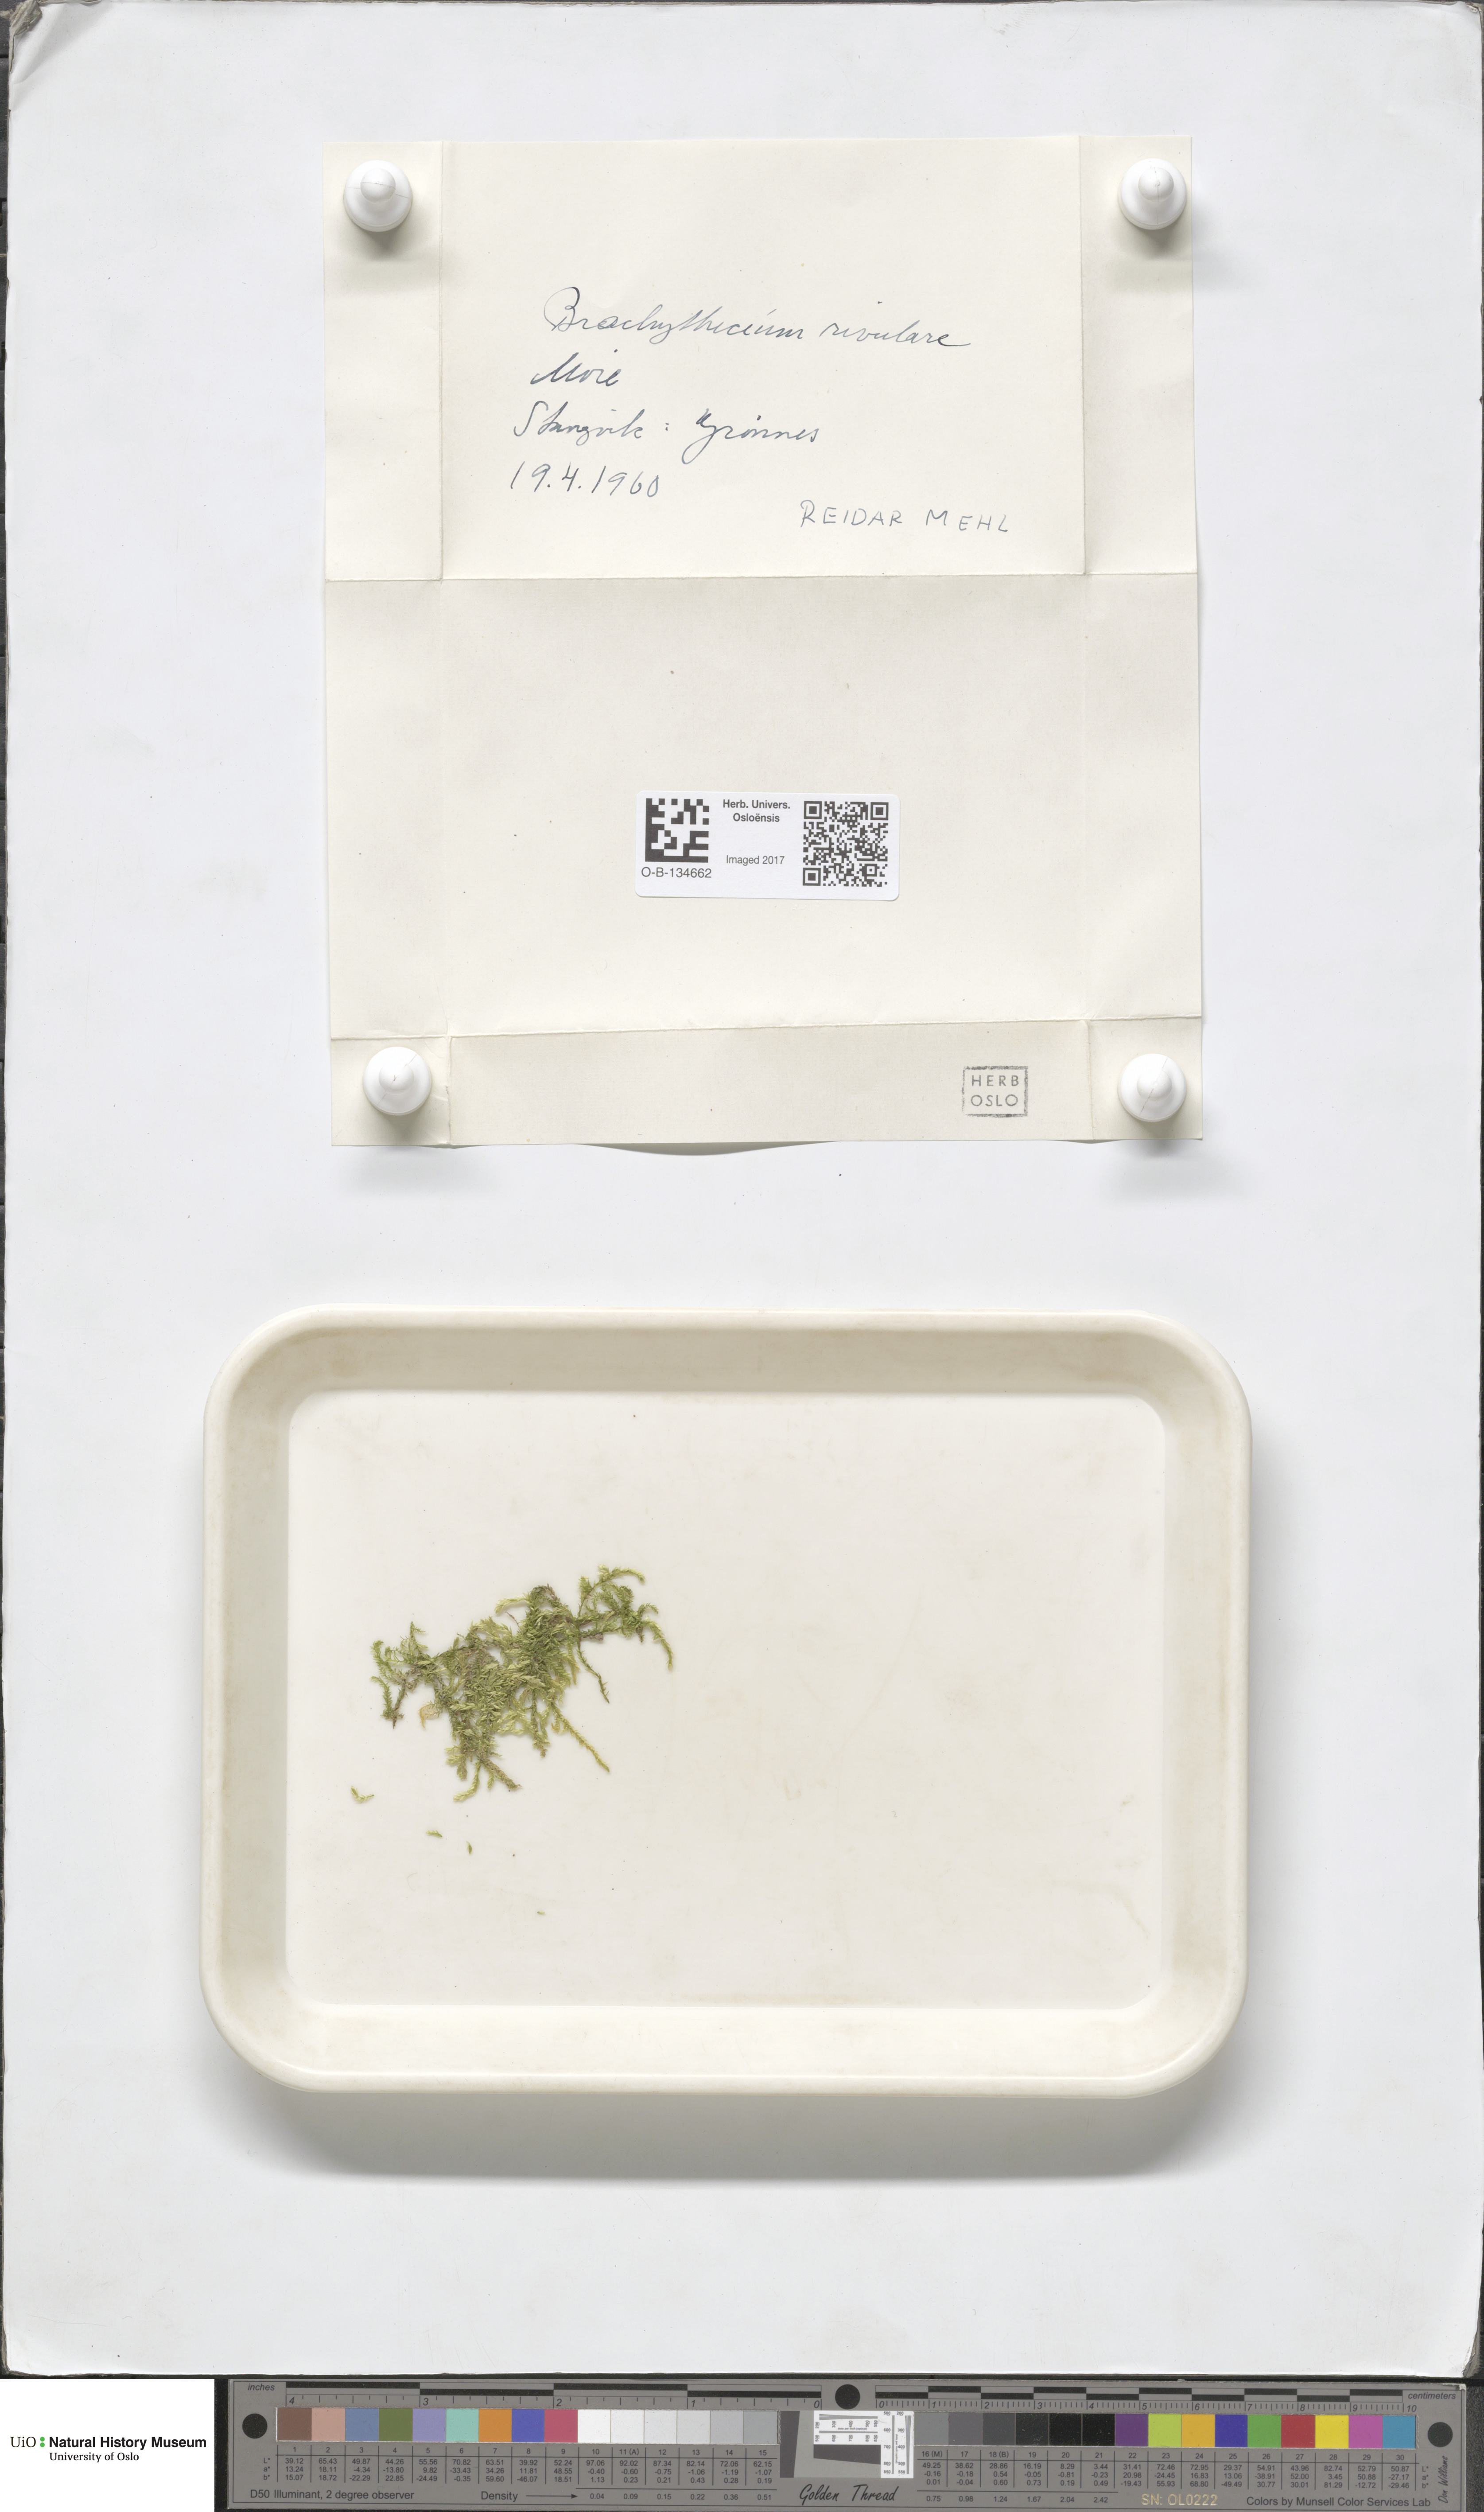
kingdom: Plantae
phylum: Bryophyta
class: Bryopsida
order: Hypnales
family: Brachytheciaceae
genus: Brachythecium
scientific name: Brachythecium rivulare
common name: River ragged moss
